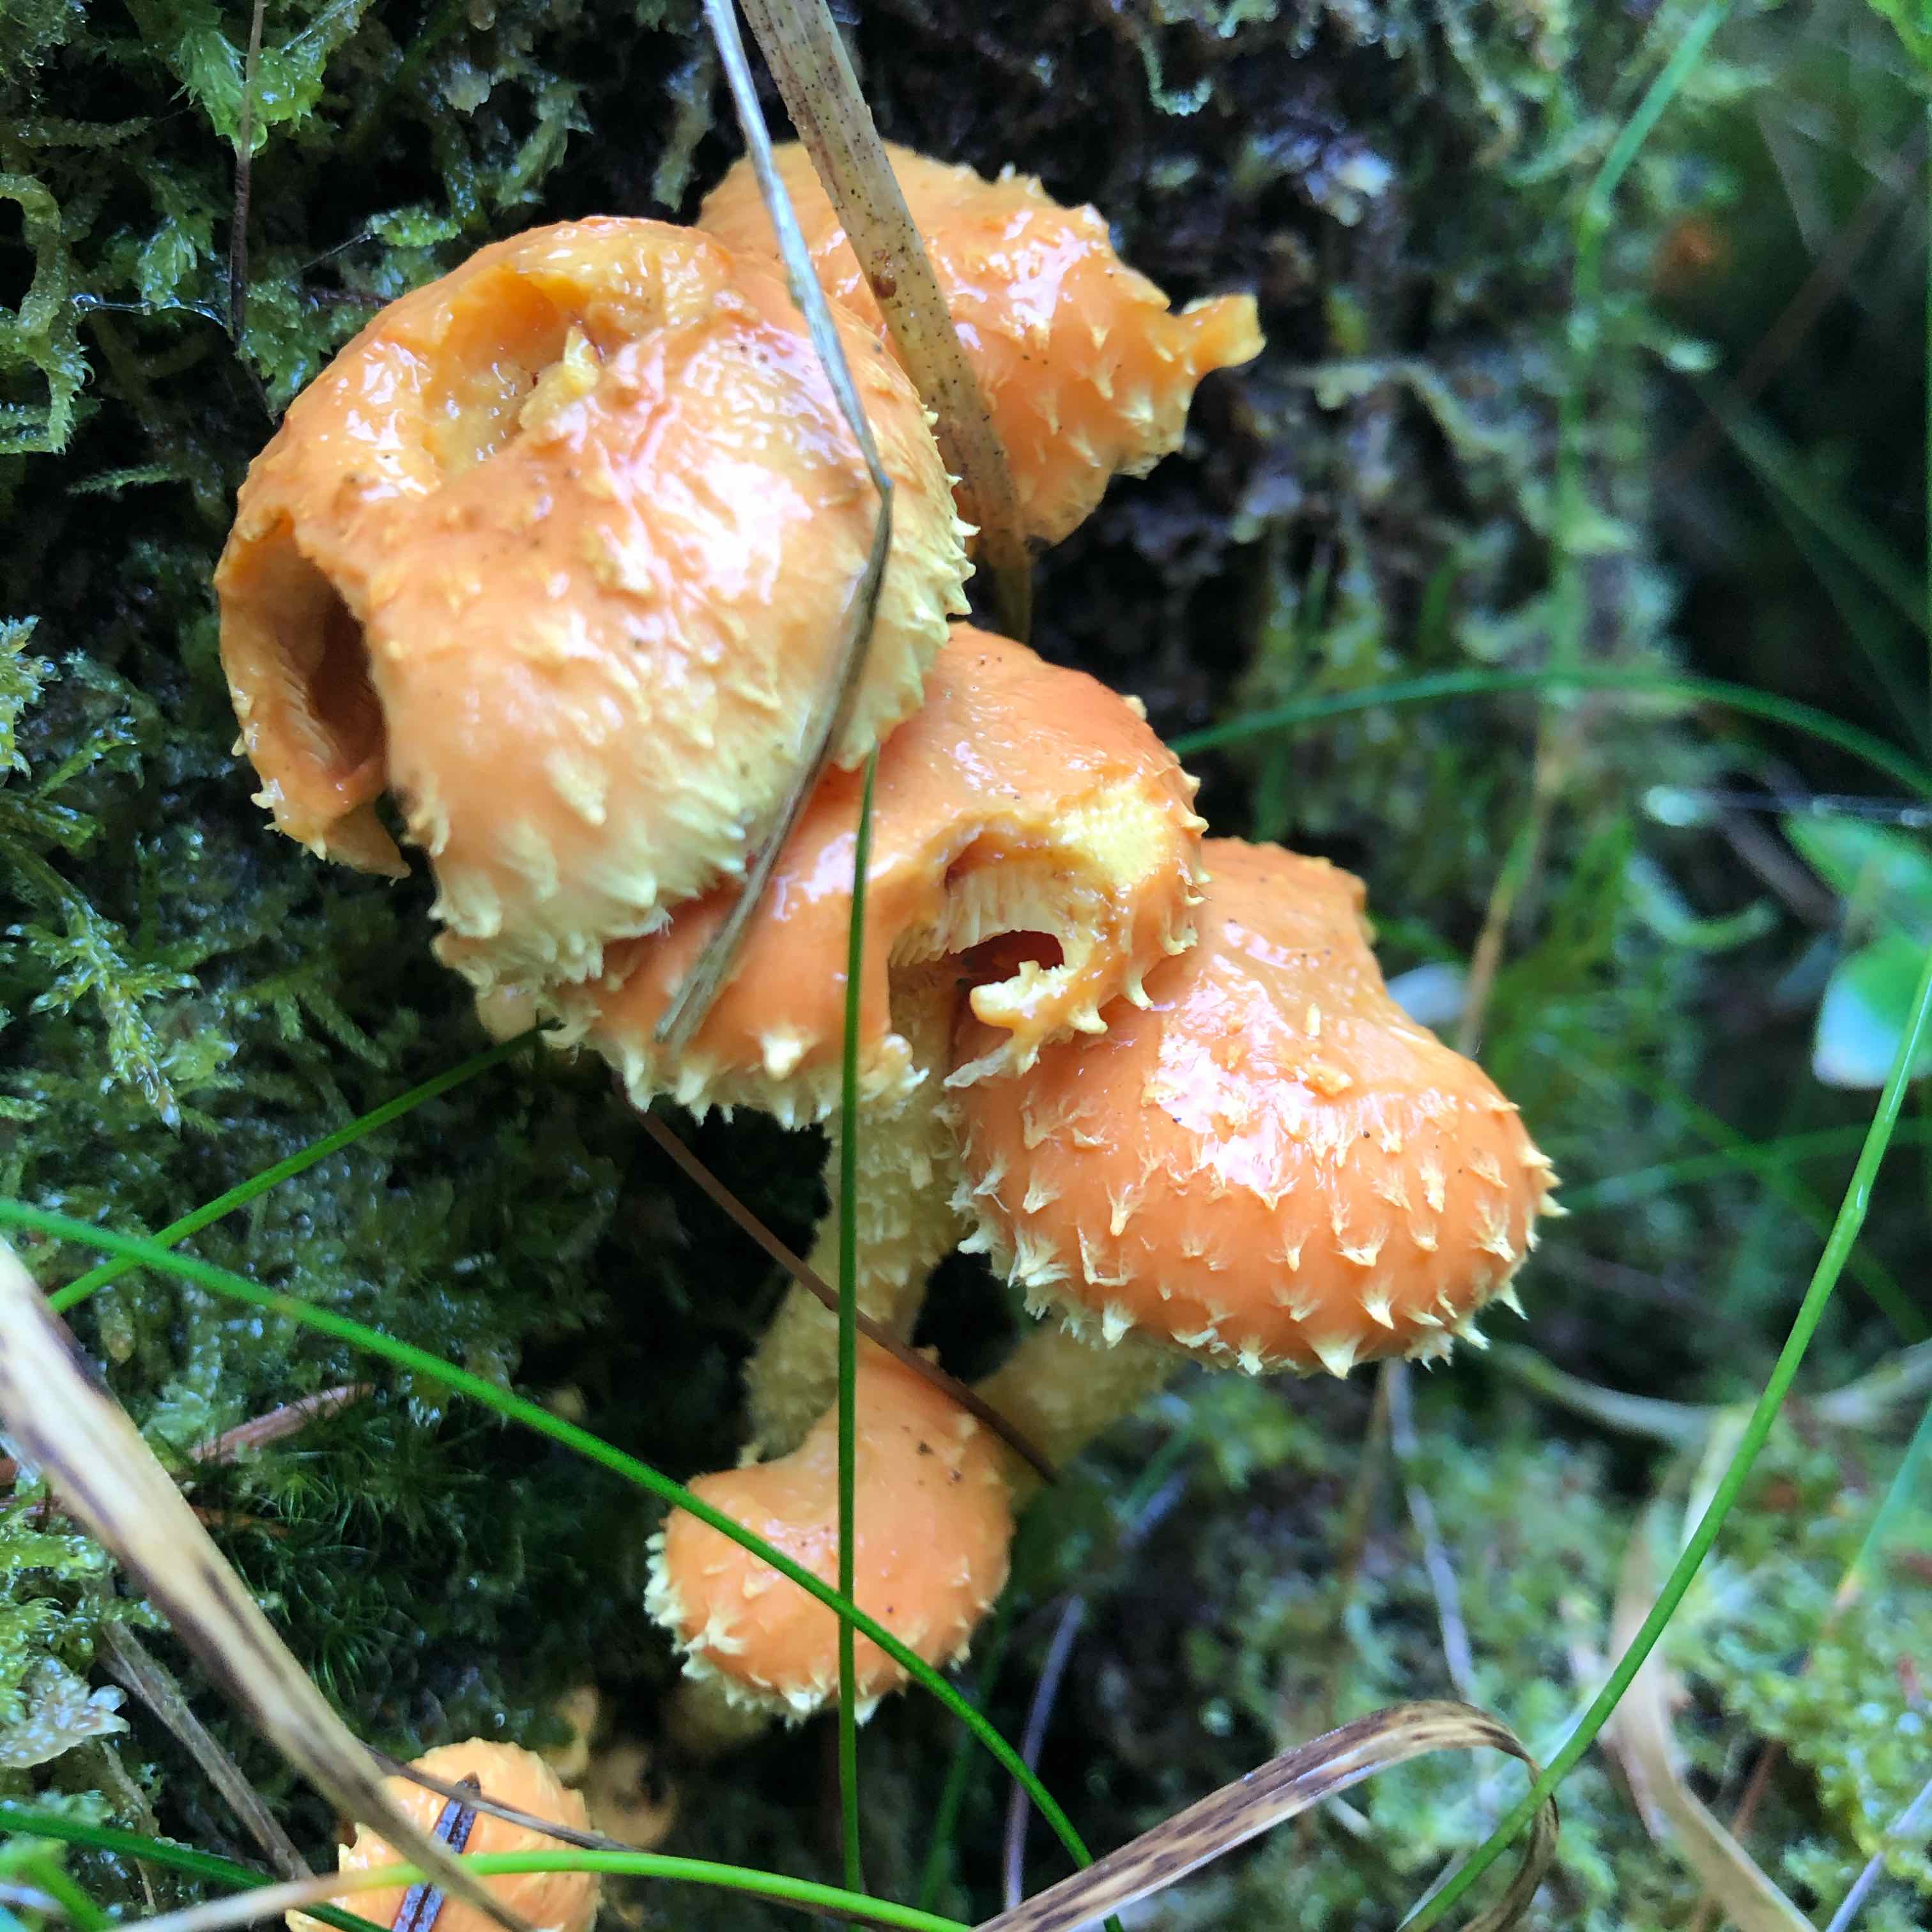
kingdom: Fungi
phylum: Basidiomycota
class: Agaricomycetes
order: Agaricales
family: Strophariaceae
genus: Pholiota
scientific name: Pholiota flammans
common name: flamme-skælhat
